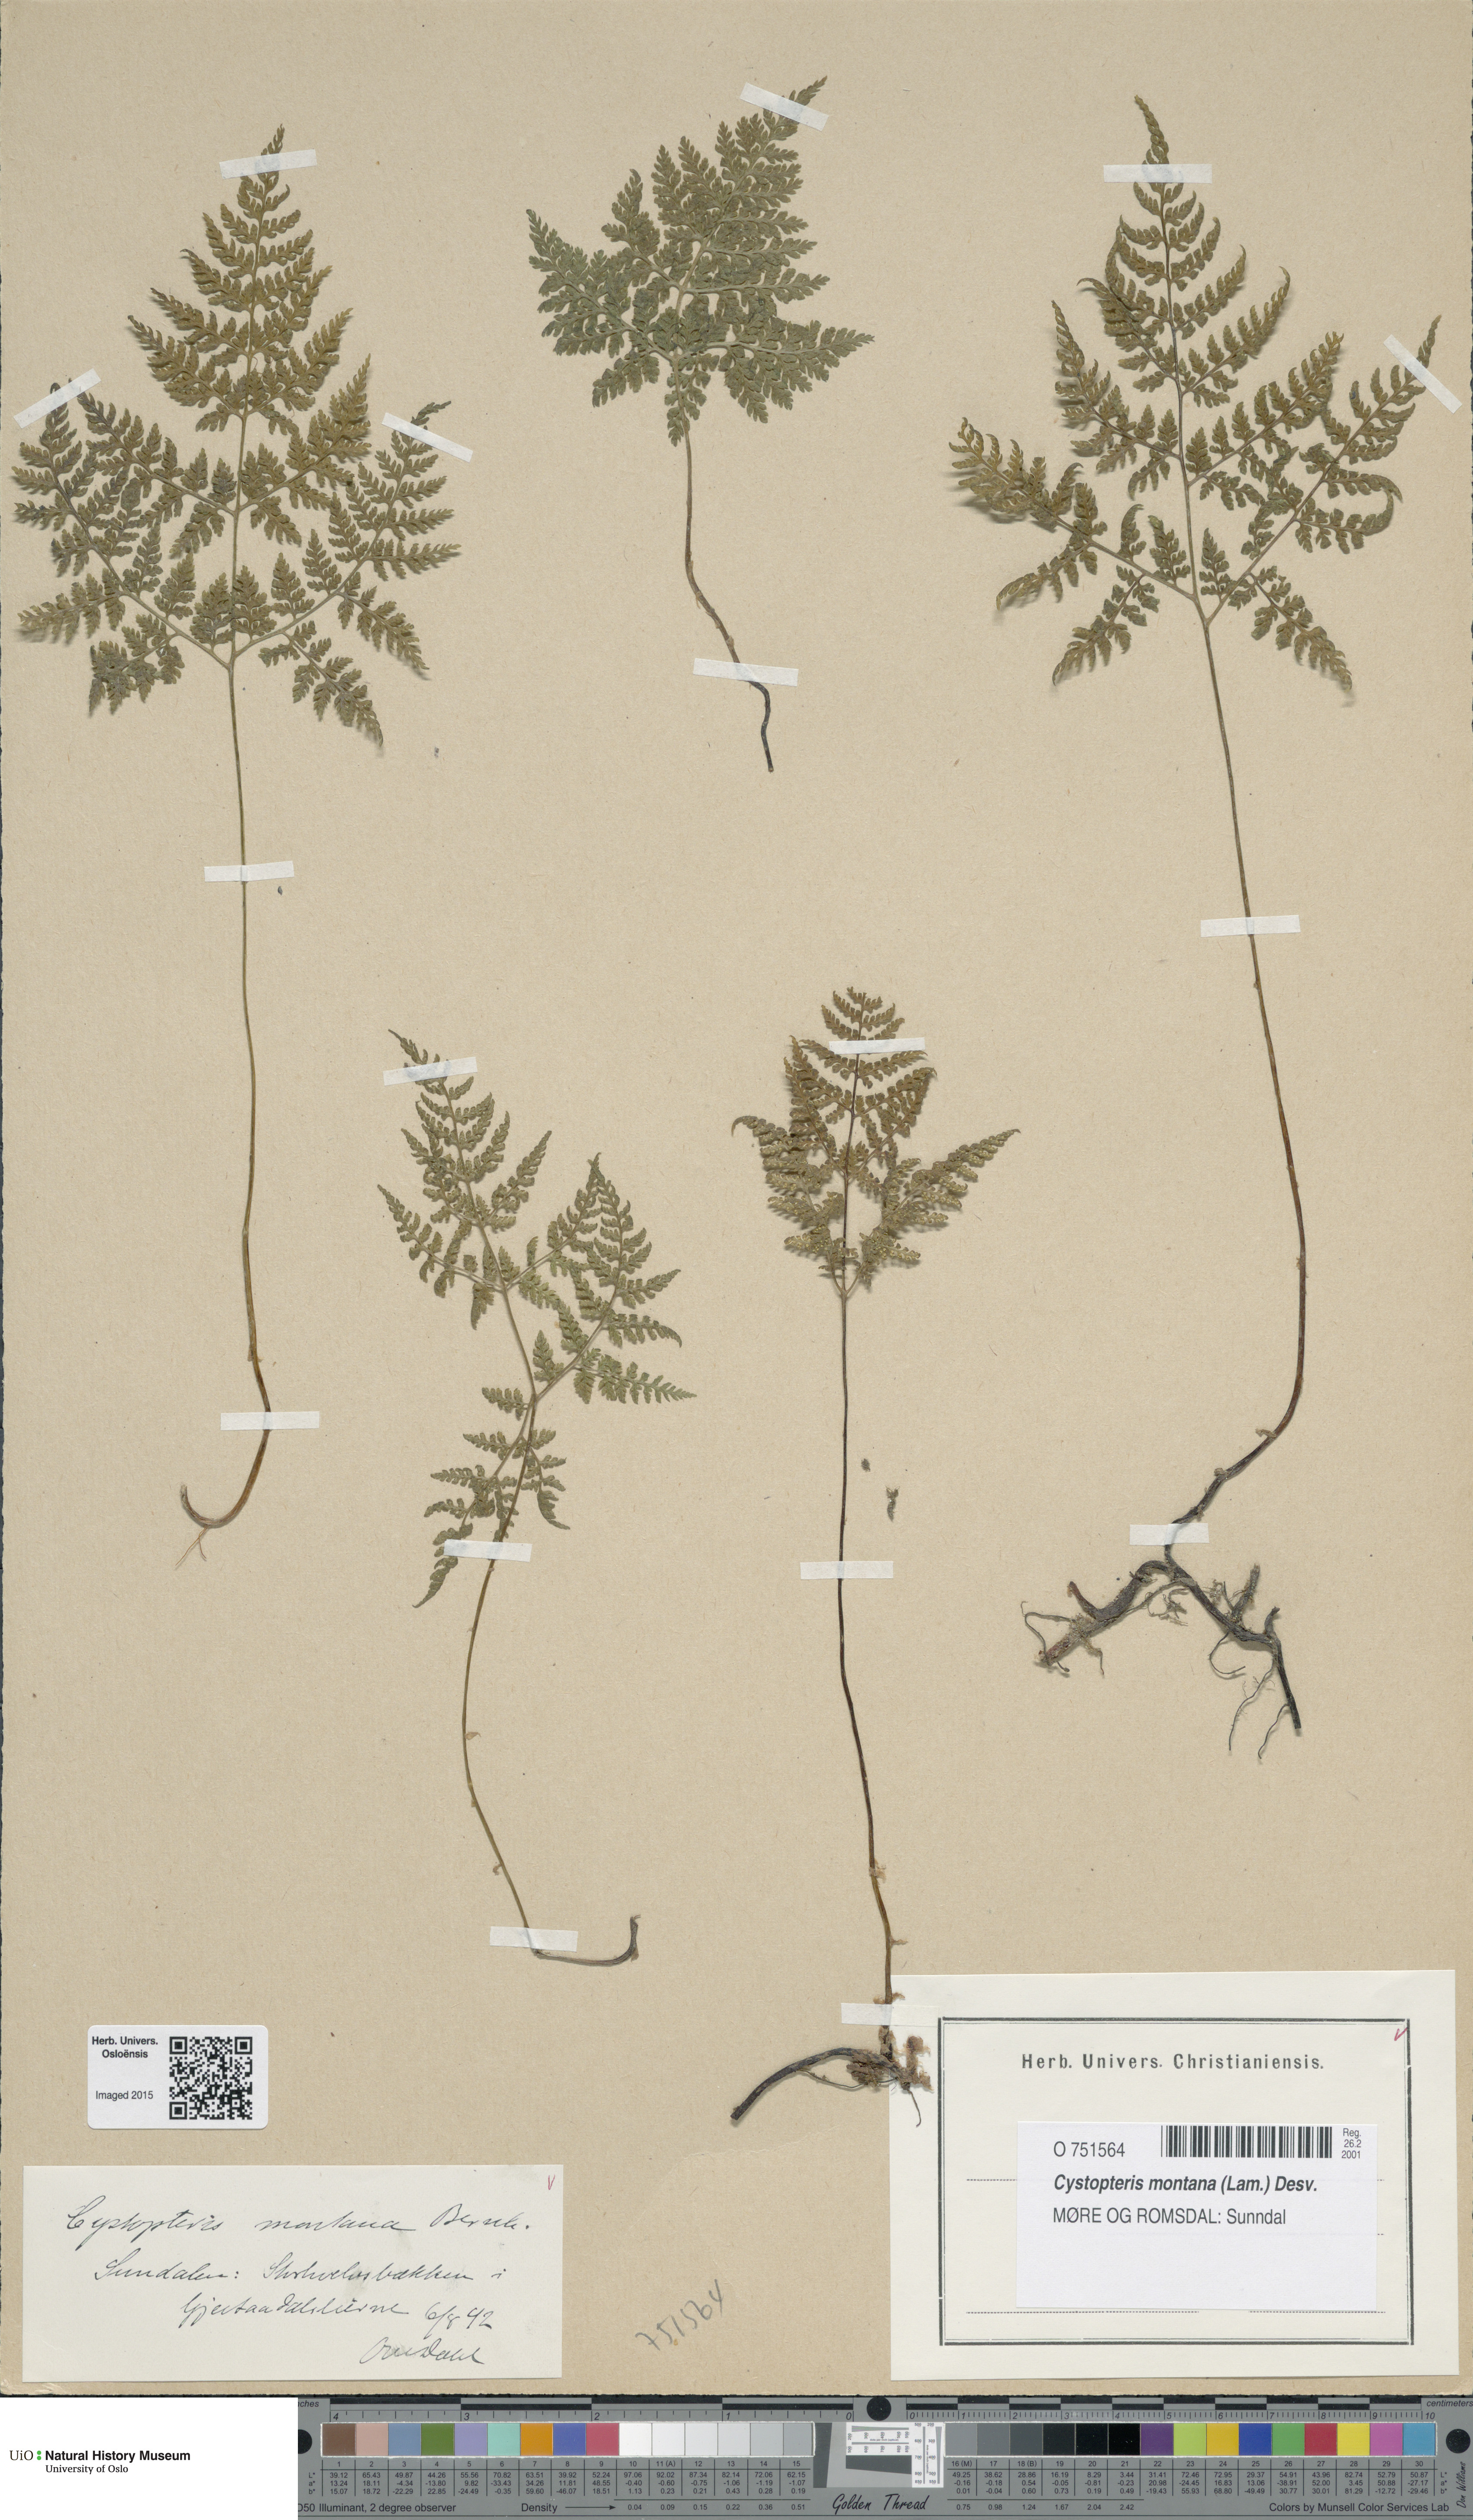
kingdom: Plantae
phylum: Tracheophyta
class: Polypodiopsida
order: Polypodiales
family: Cystopteridaceae
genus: Cystopteris
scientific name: Cystopteris montana
